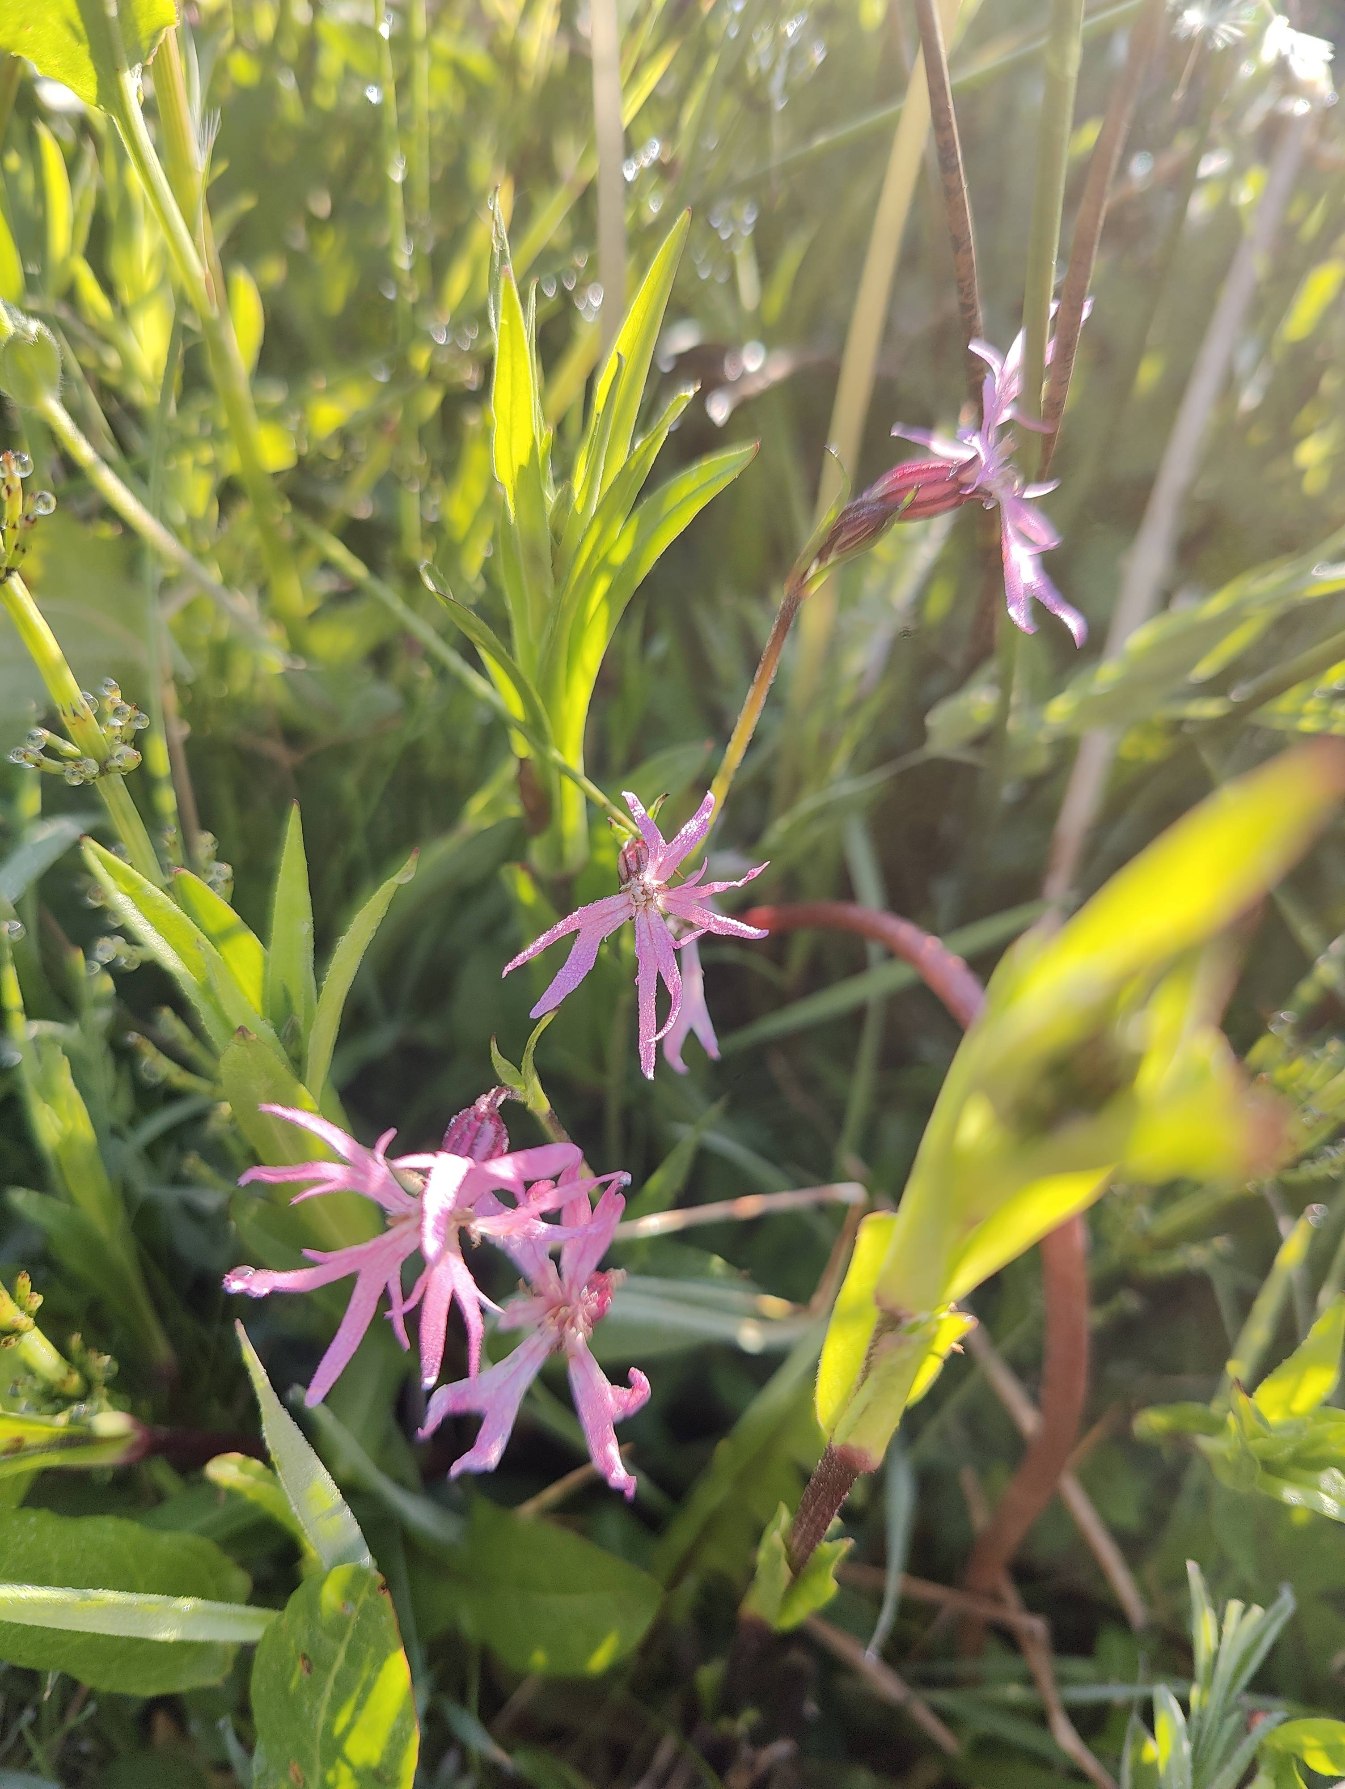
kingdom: Plantae
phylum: Tracheophyta
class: Magnoliopsida
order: Caryophyllales
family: Caryophyllaceae
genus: Silene
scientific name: Silene flos-cuculi
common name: Trævlekrone
